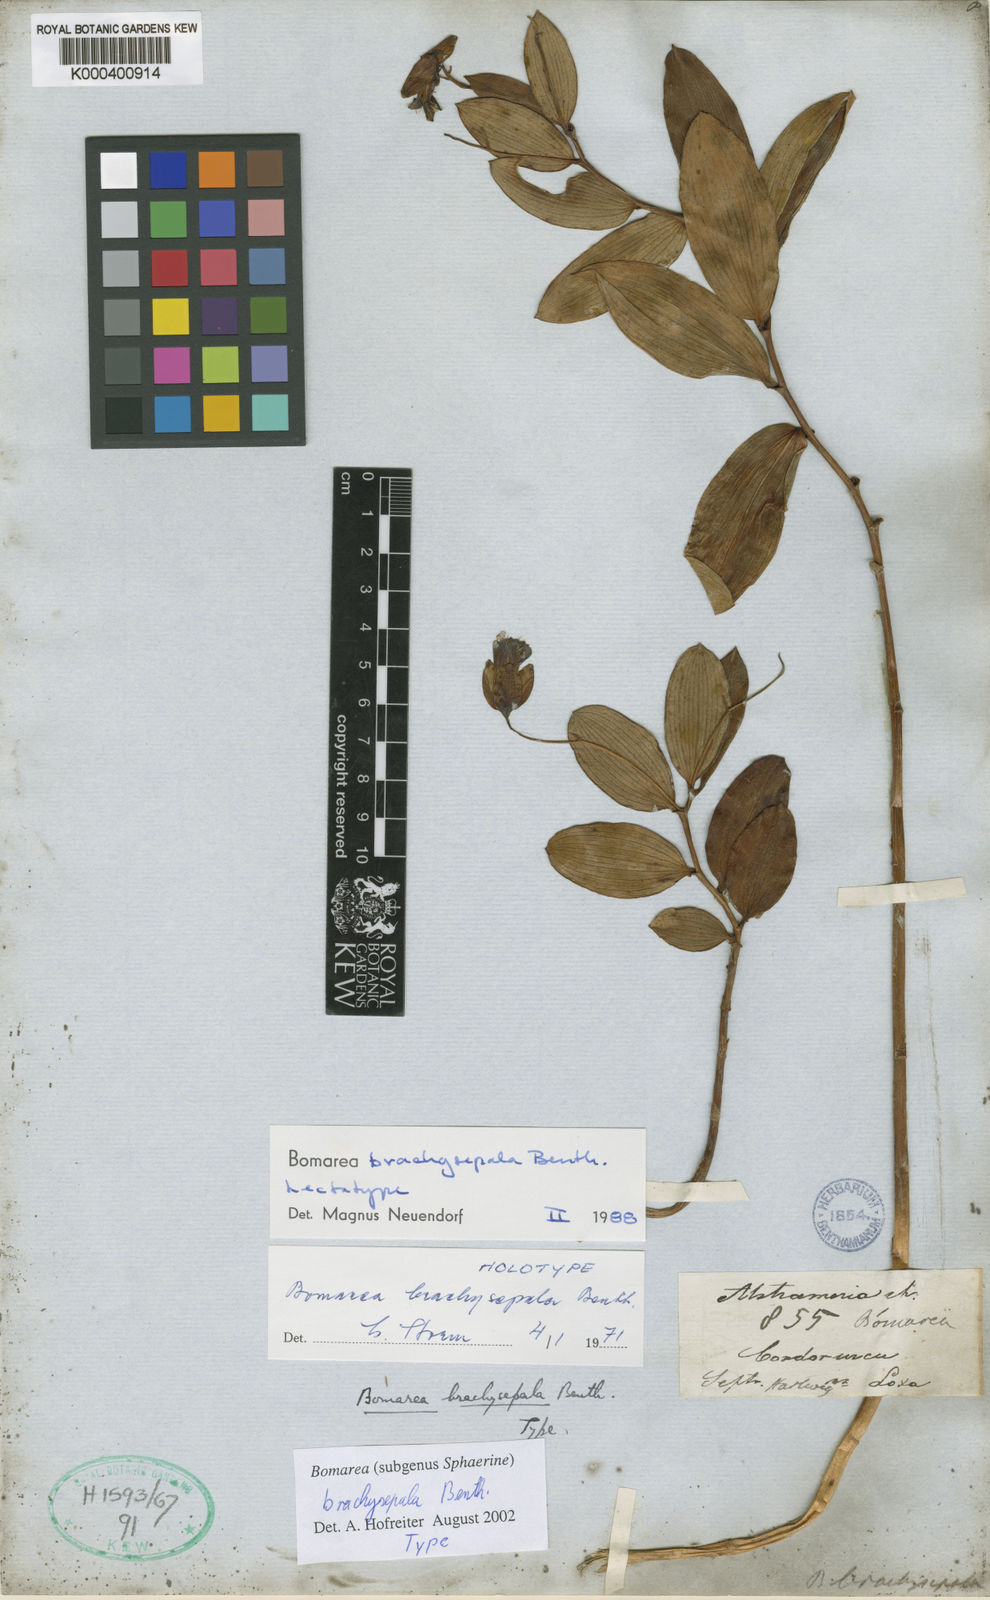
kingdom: Plantae
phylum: Tracheophyta
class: Liliopsida
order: Liliales
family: Alstroemeriaceae
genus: Bomarea
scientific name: Bomarea brachysepala
